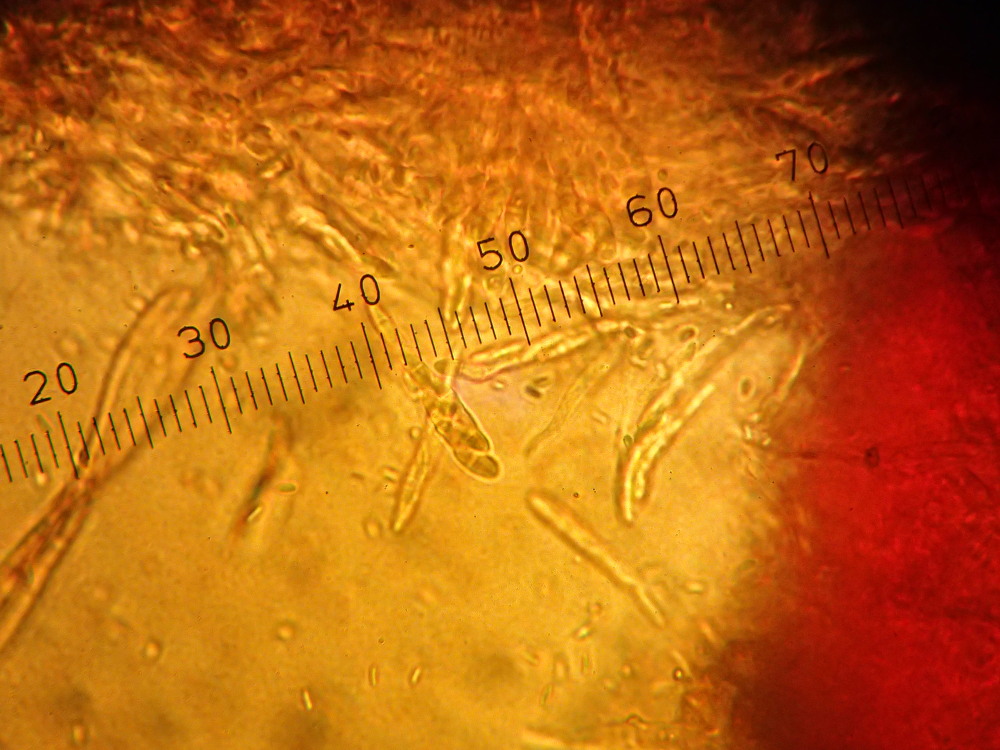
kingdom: Fungi
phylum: Ascomycota
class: Sordariomycetes
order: Hypocreales
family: Nectriaceae
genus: Nectria
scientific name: Nectria cinnabarina
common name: almindelig cinnobersvamp
